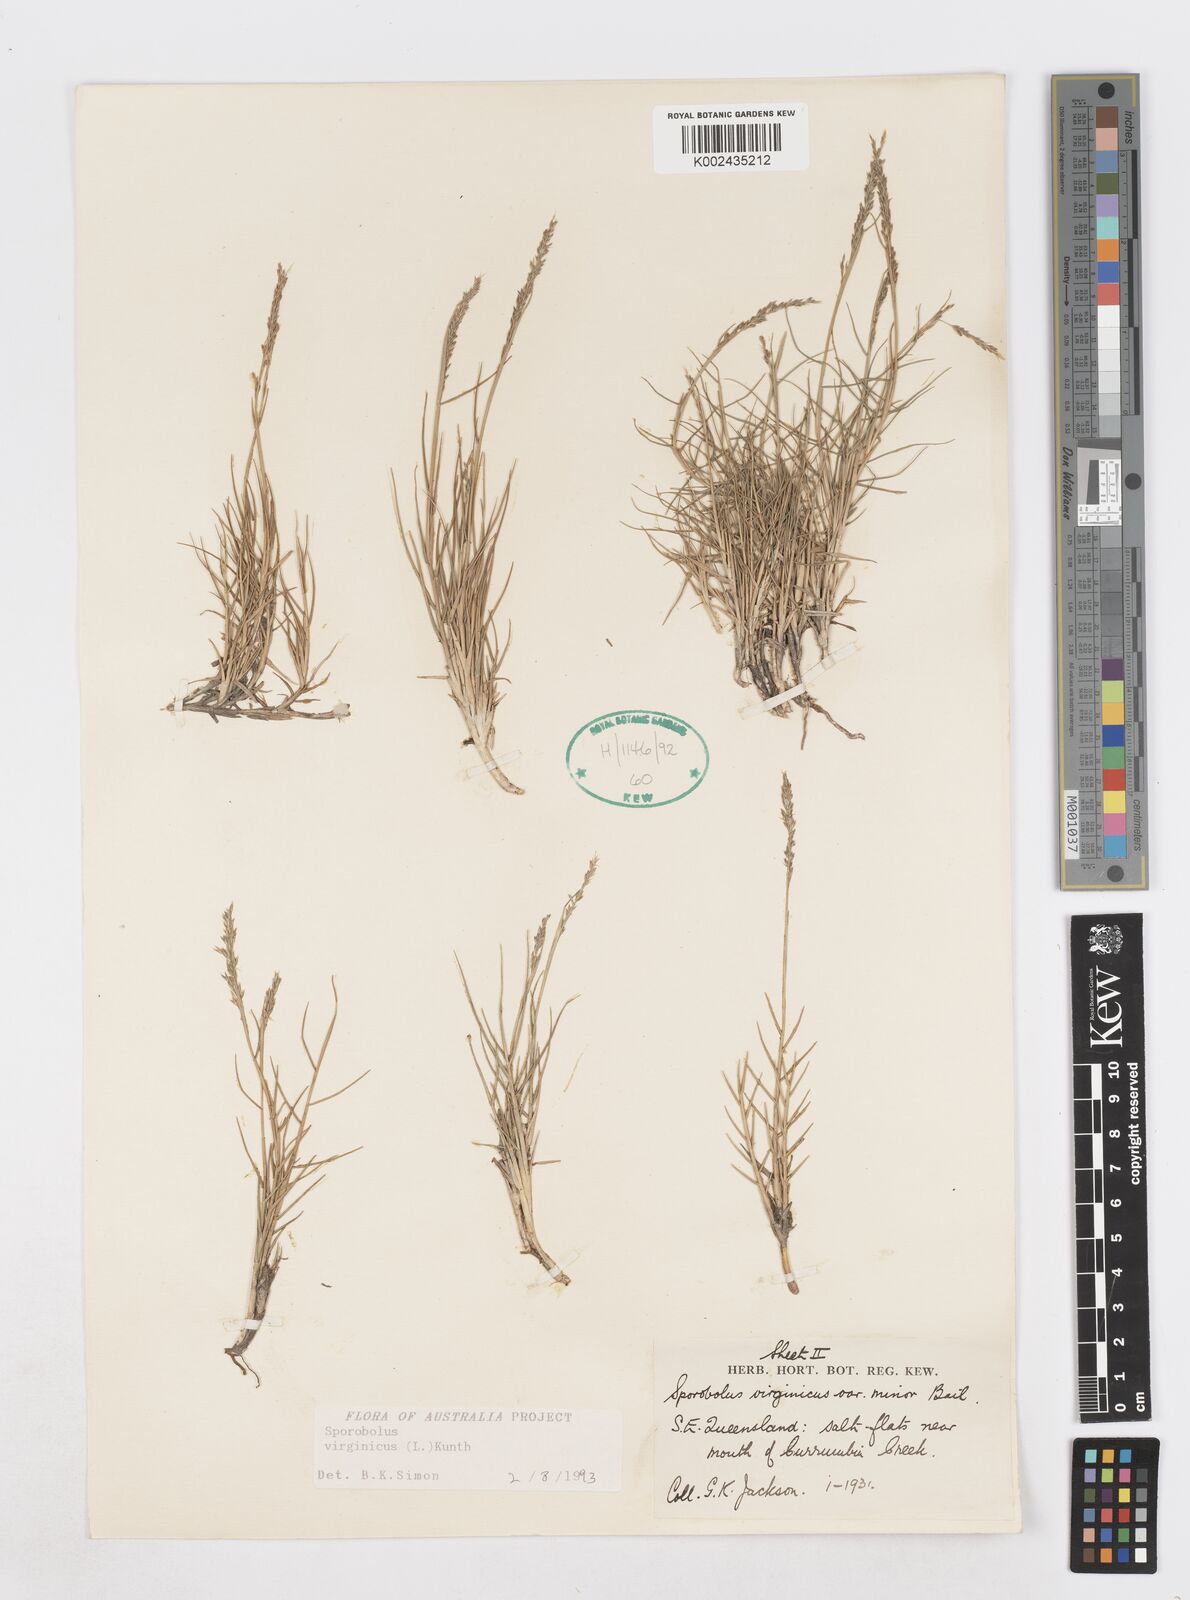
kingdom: Plantae
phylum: Tracheophyta
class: Liliopsida
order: Poales
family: Poaceae
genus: Sporobolus
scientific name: Sporobolus virginicus
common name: Beach dropseed
